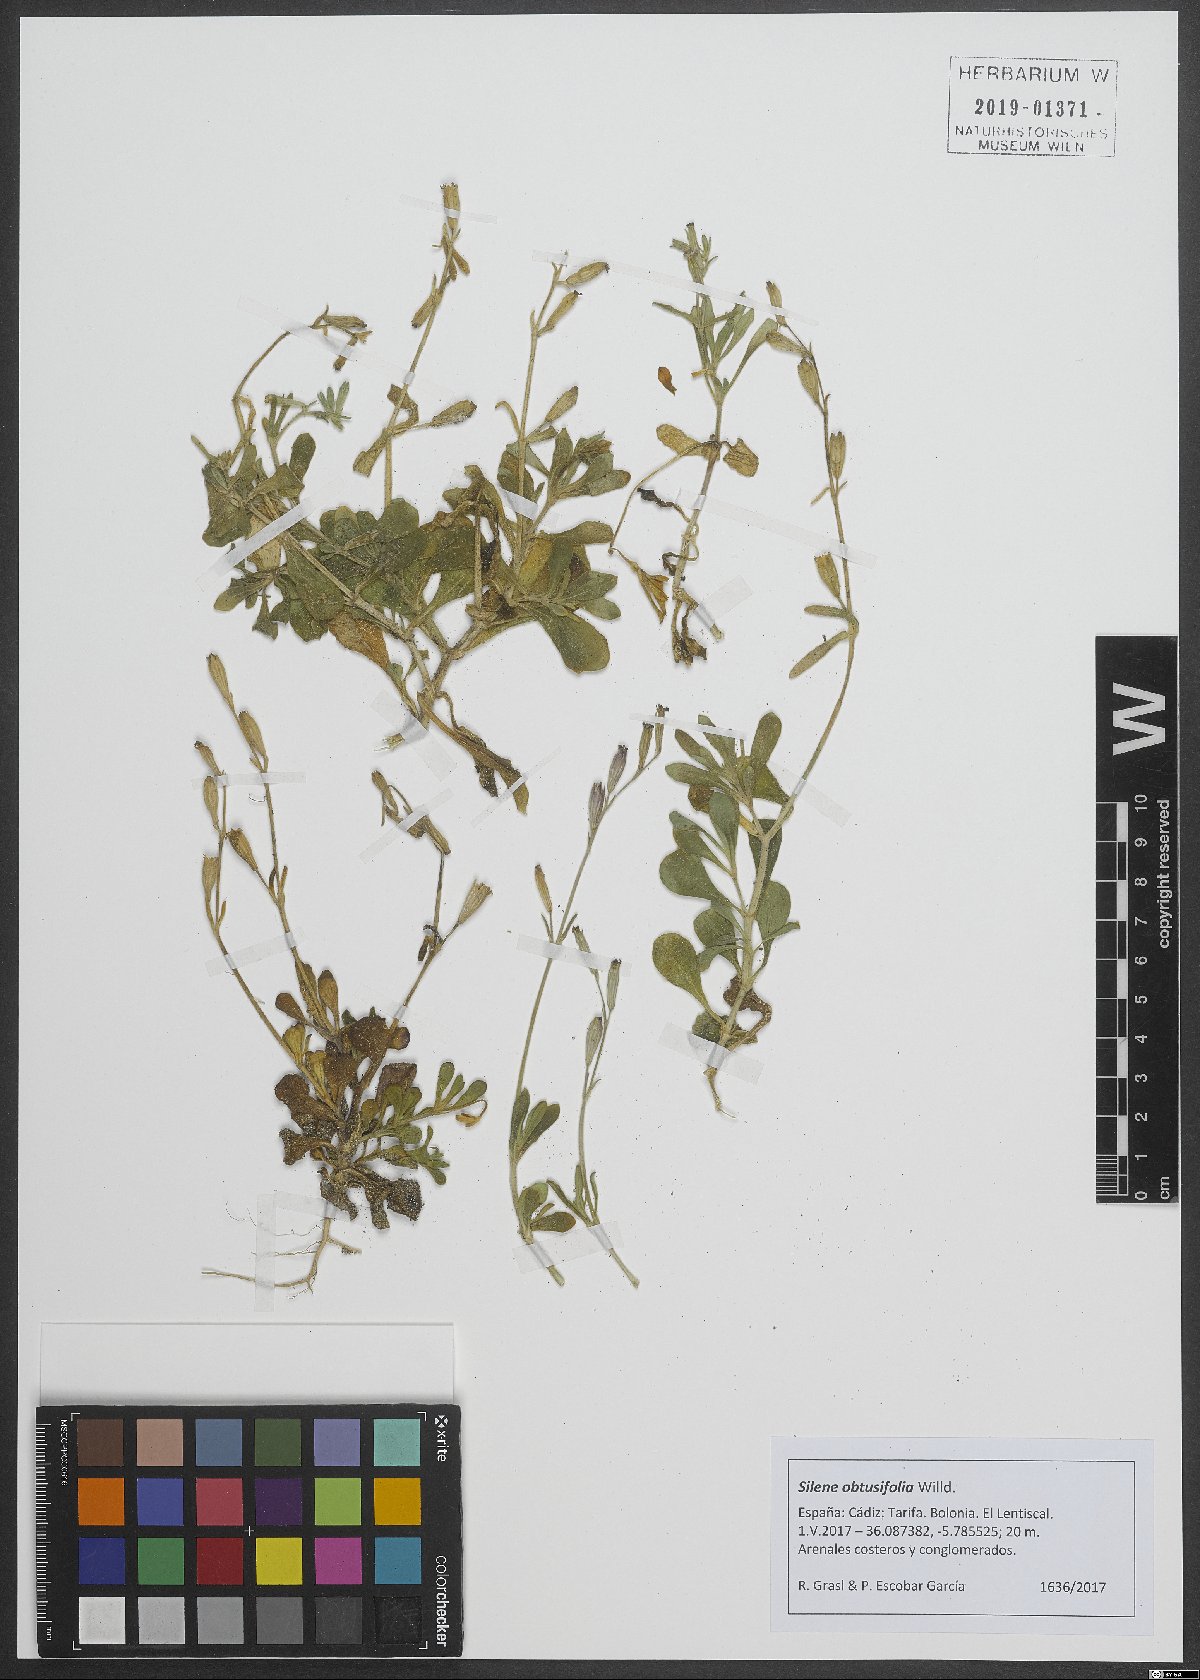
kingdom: Plantae
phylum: Tracheophyta
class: Magnoliopsida
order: Caryophyllales
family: Caryophyllaceae
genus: Silene
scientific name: Silene obtusifolia
